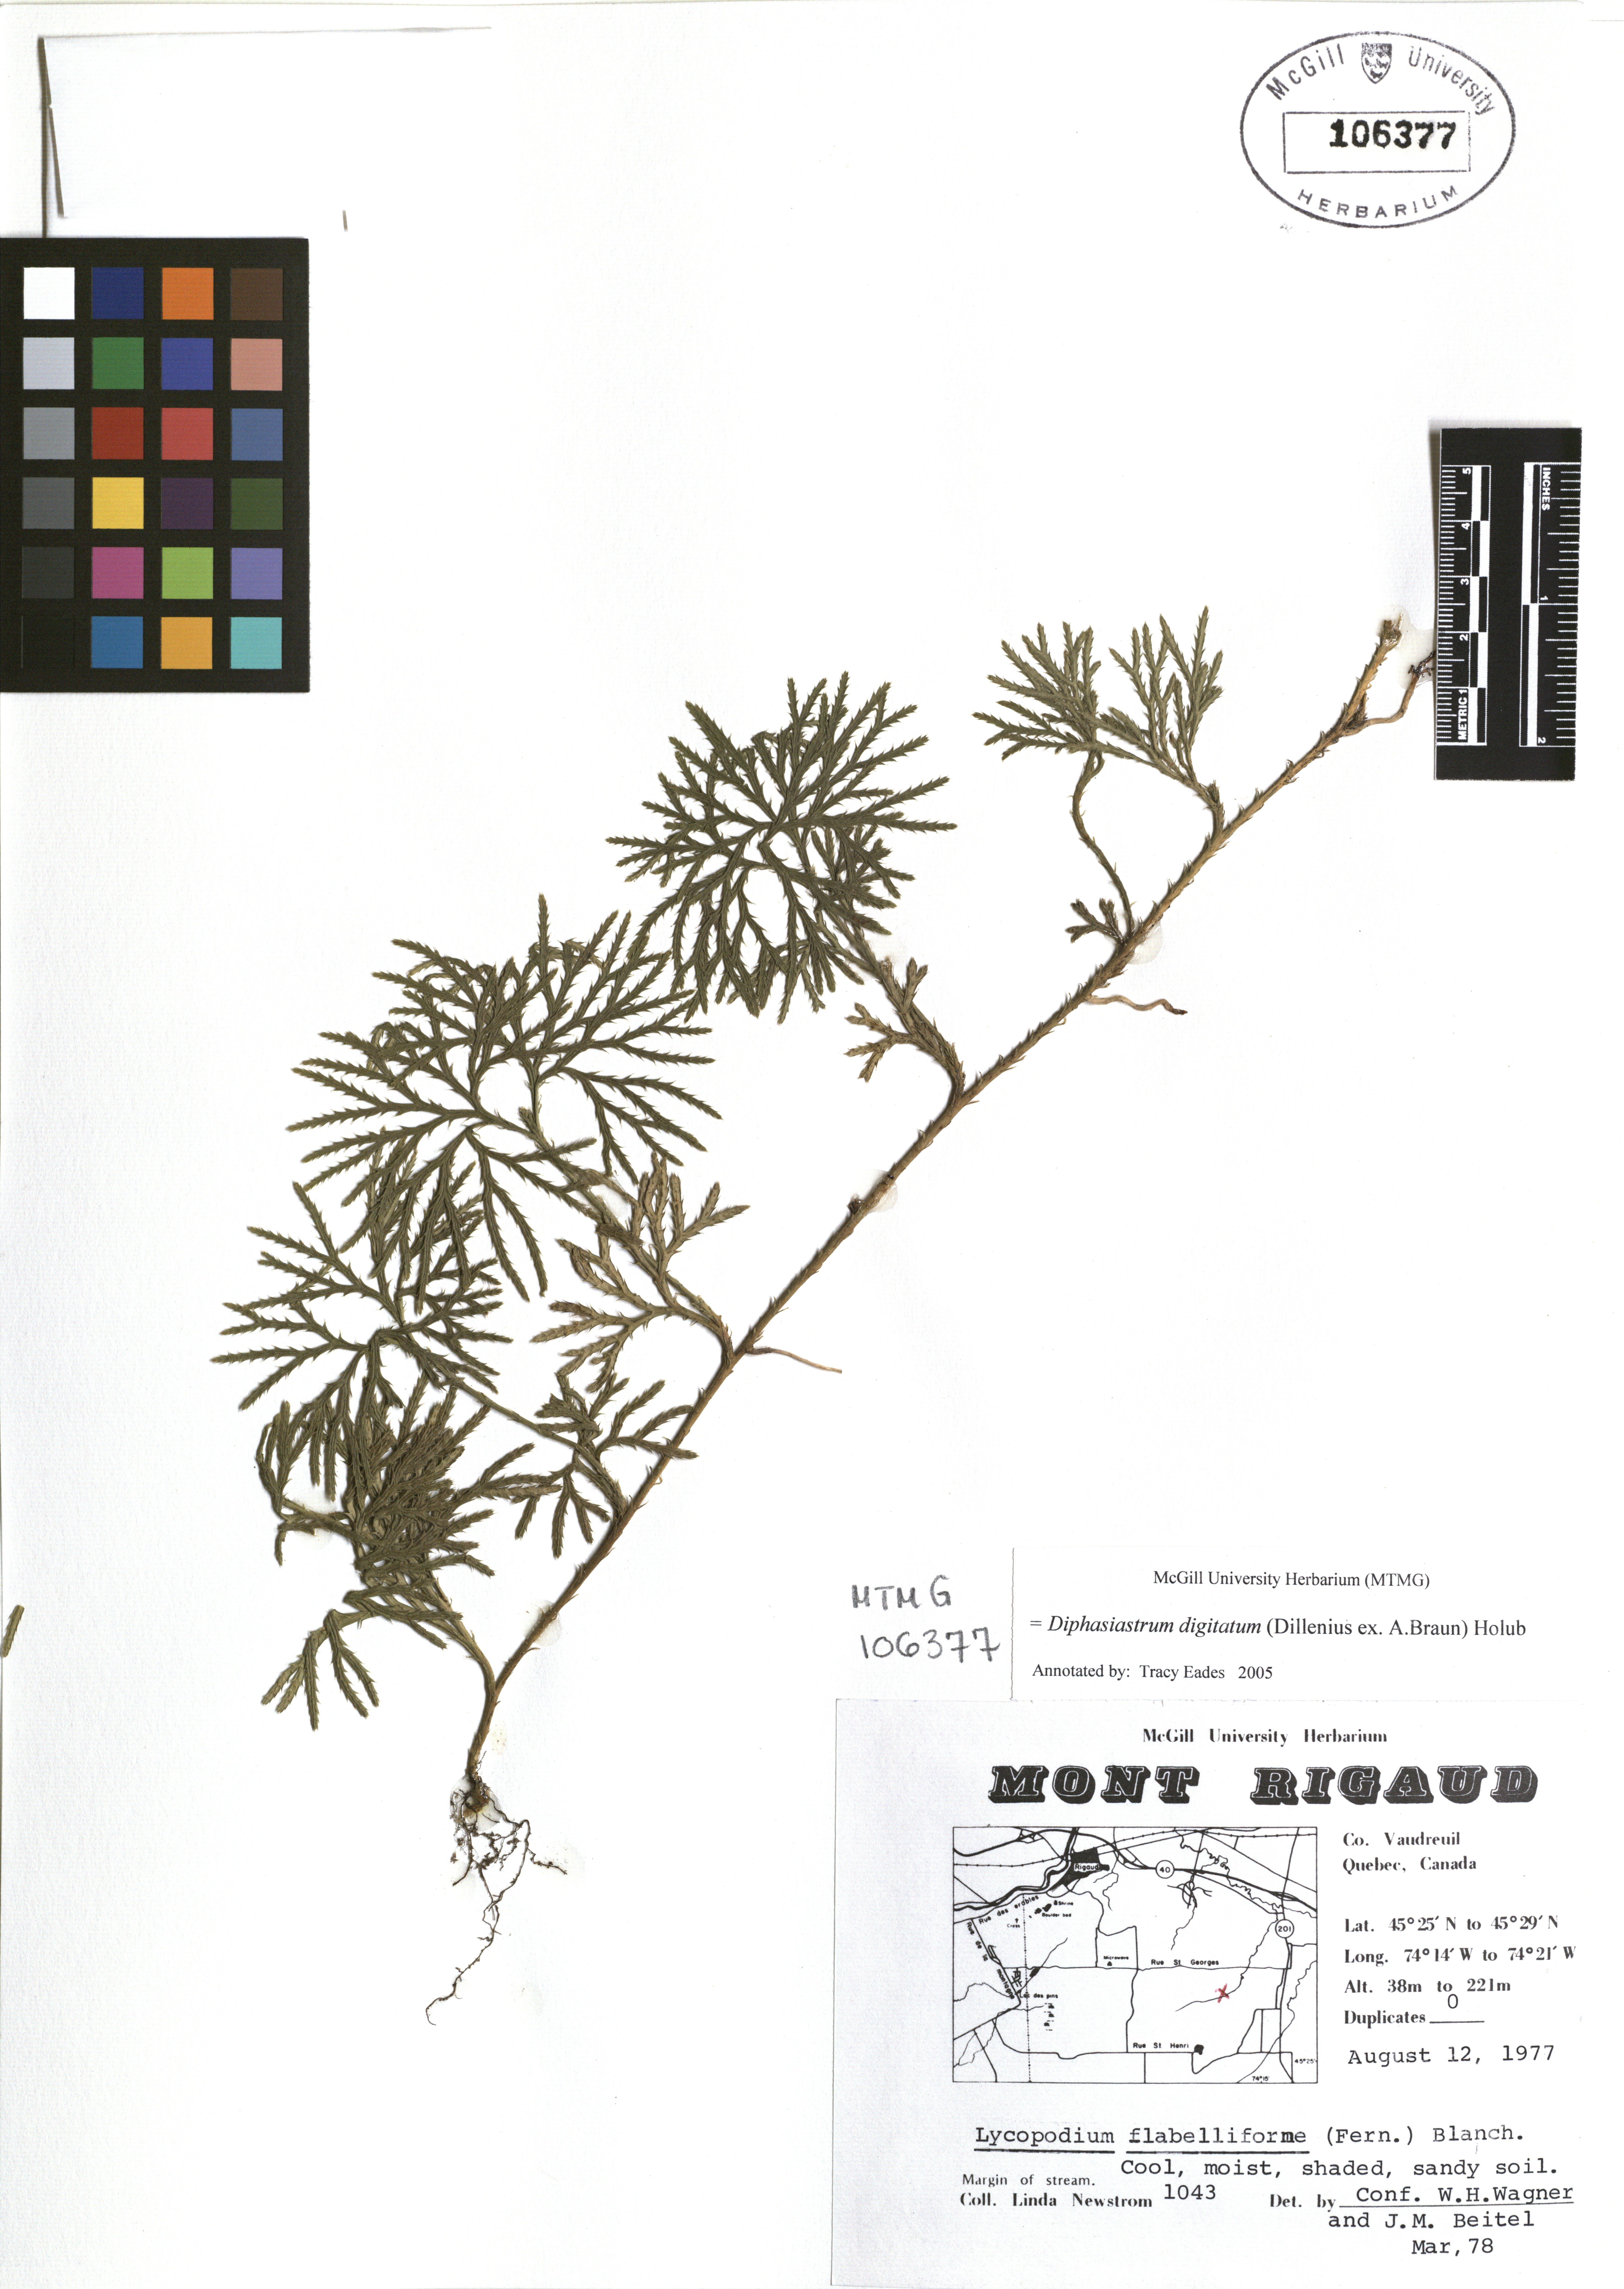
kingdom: Plantae
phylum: Tracheophyta
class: Lycopodiopsida
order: Lycopodiales
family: Lycopodiaceae
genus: Diphasiastrum
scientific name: Diphasiastrum digitatum
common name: Southern running-pine
